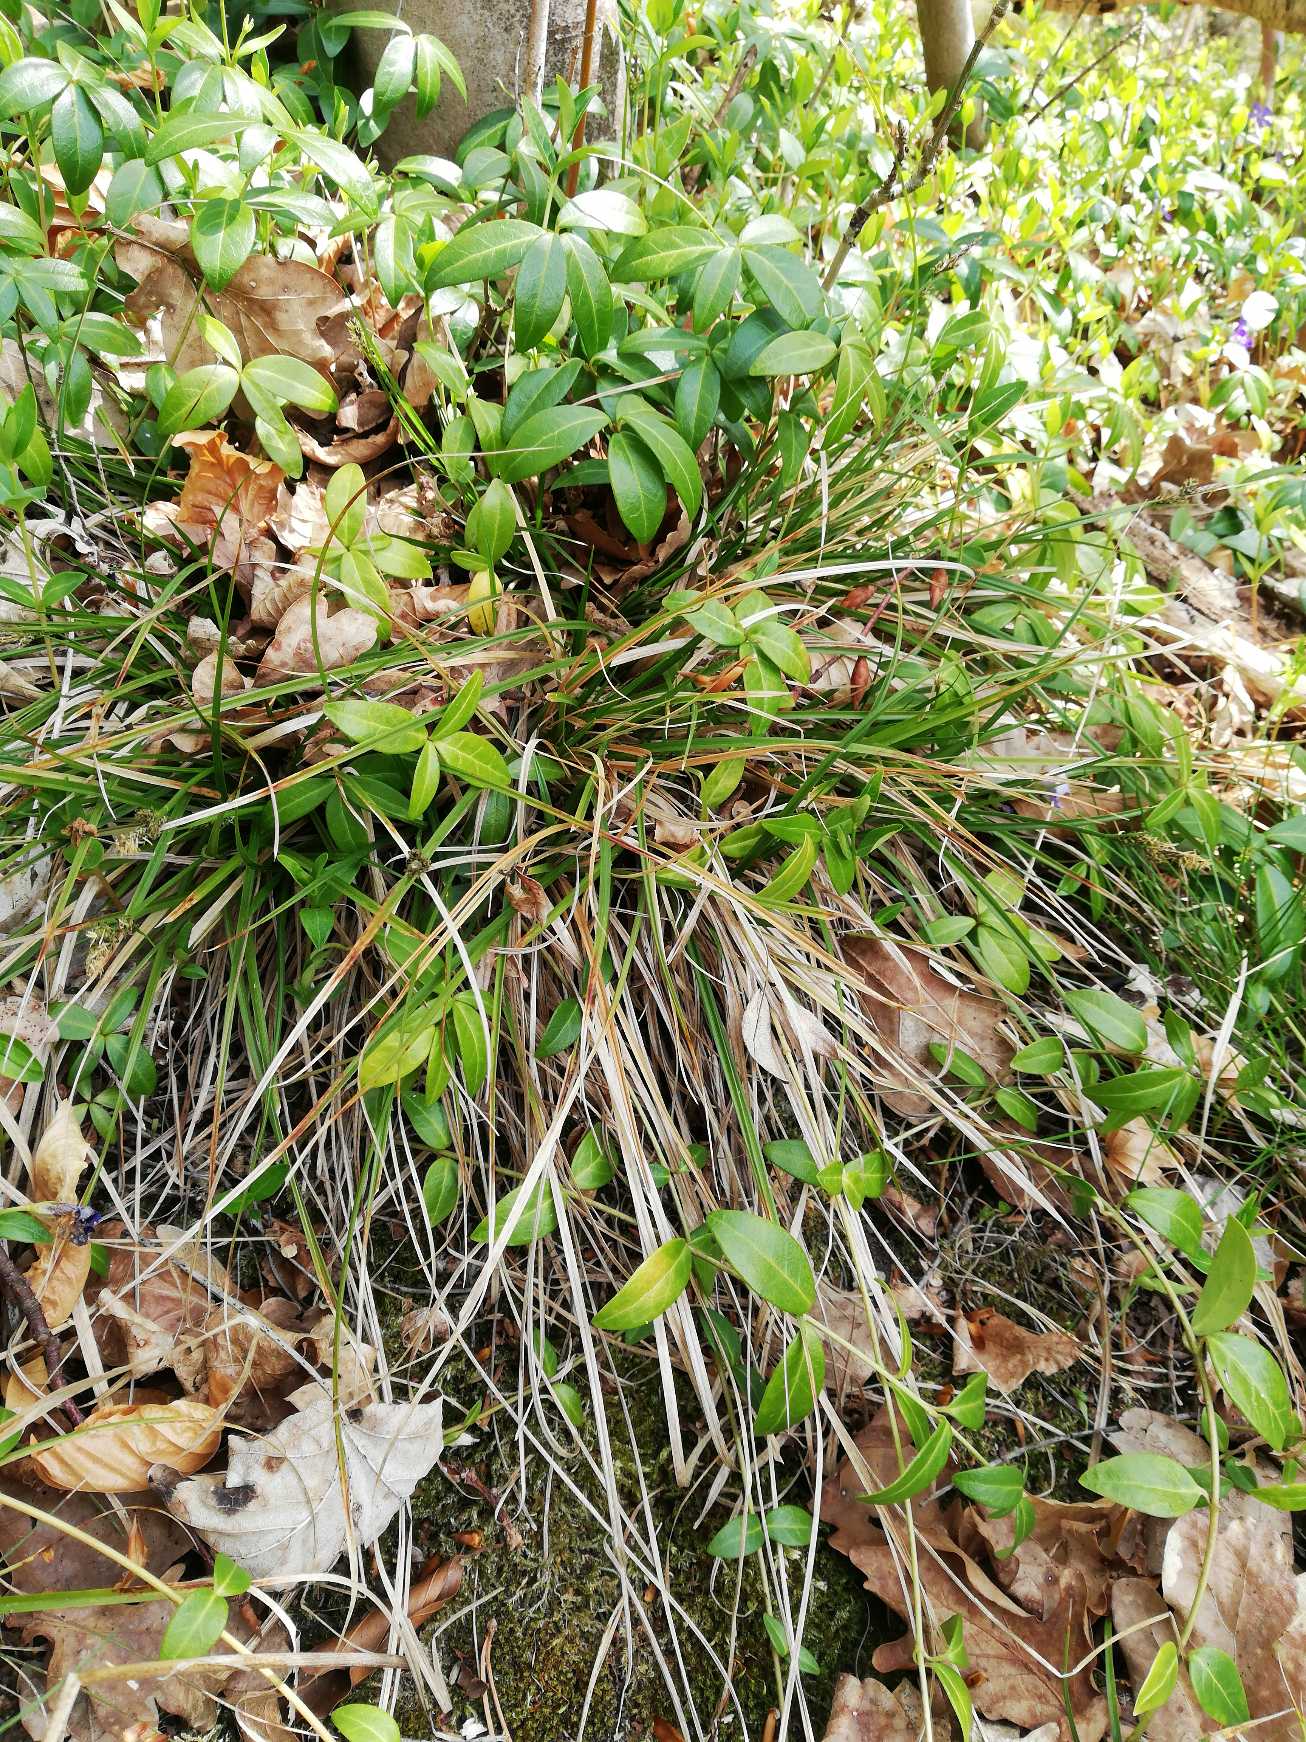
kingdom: Plantae
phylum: Tracheophyta
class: Liliopsida
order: Poales
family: Cyperaceae
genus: Carex
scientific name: Carex pilulifera
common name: Pille-star
